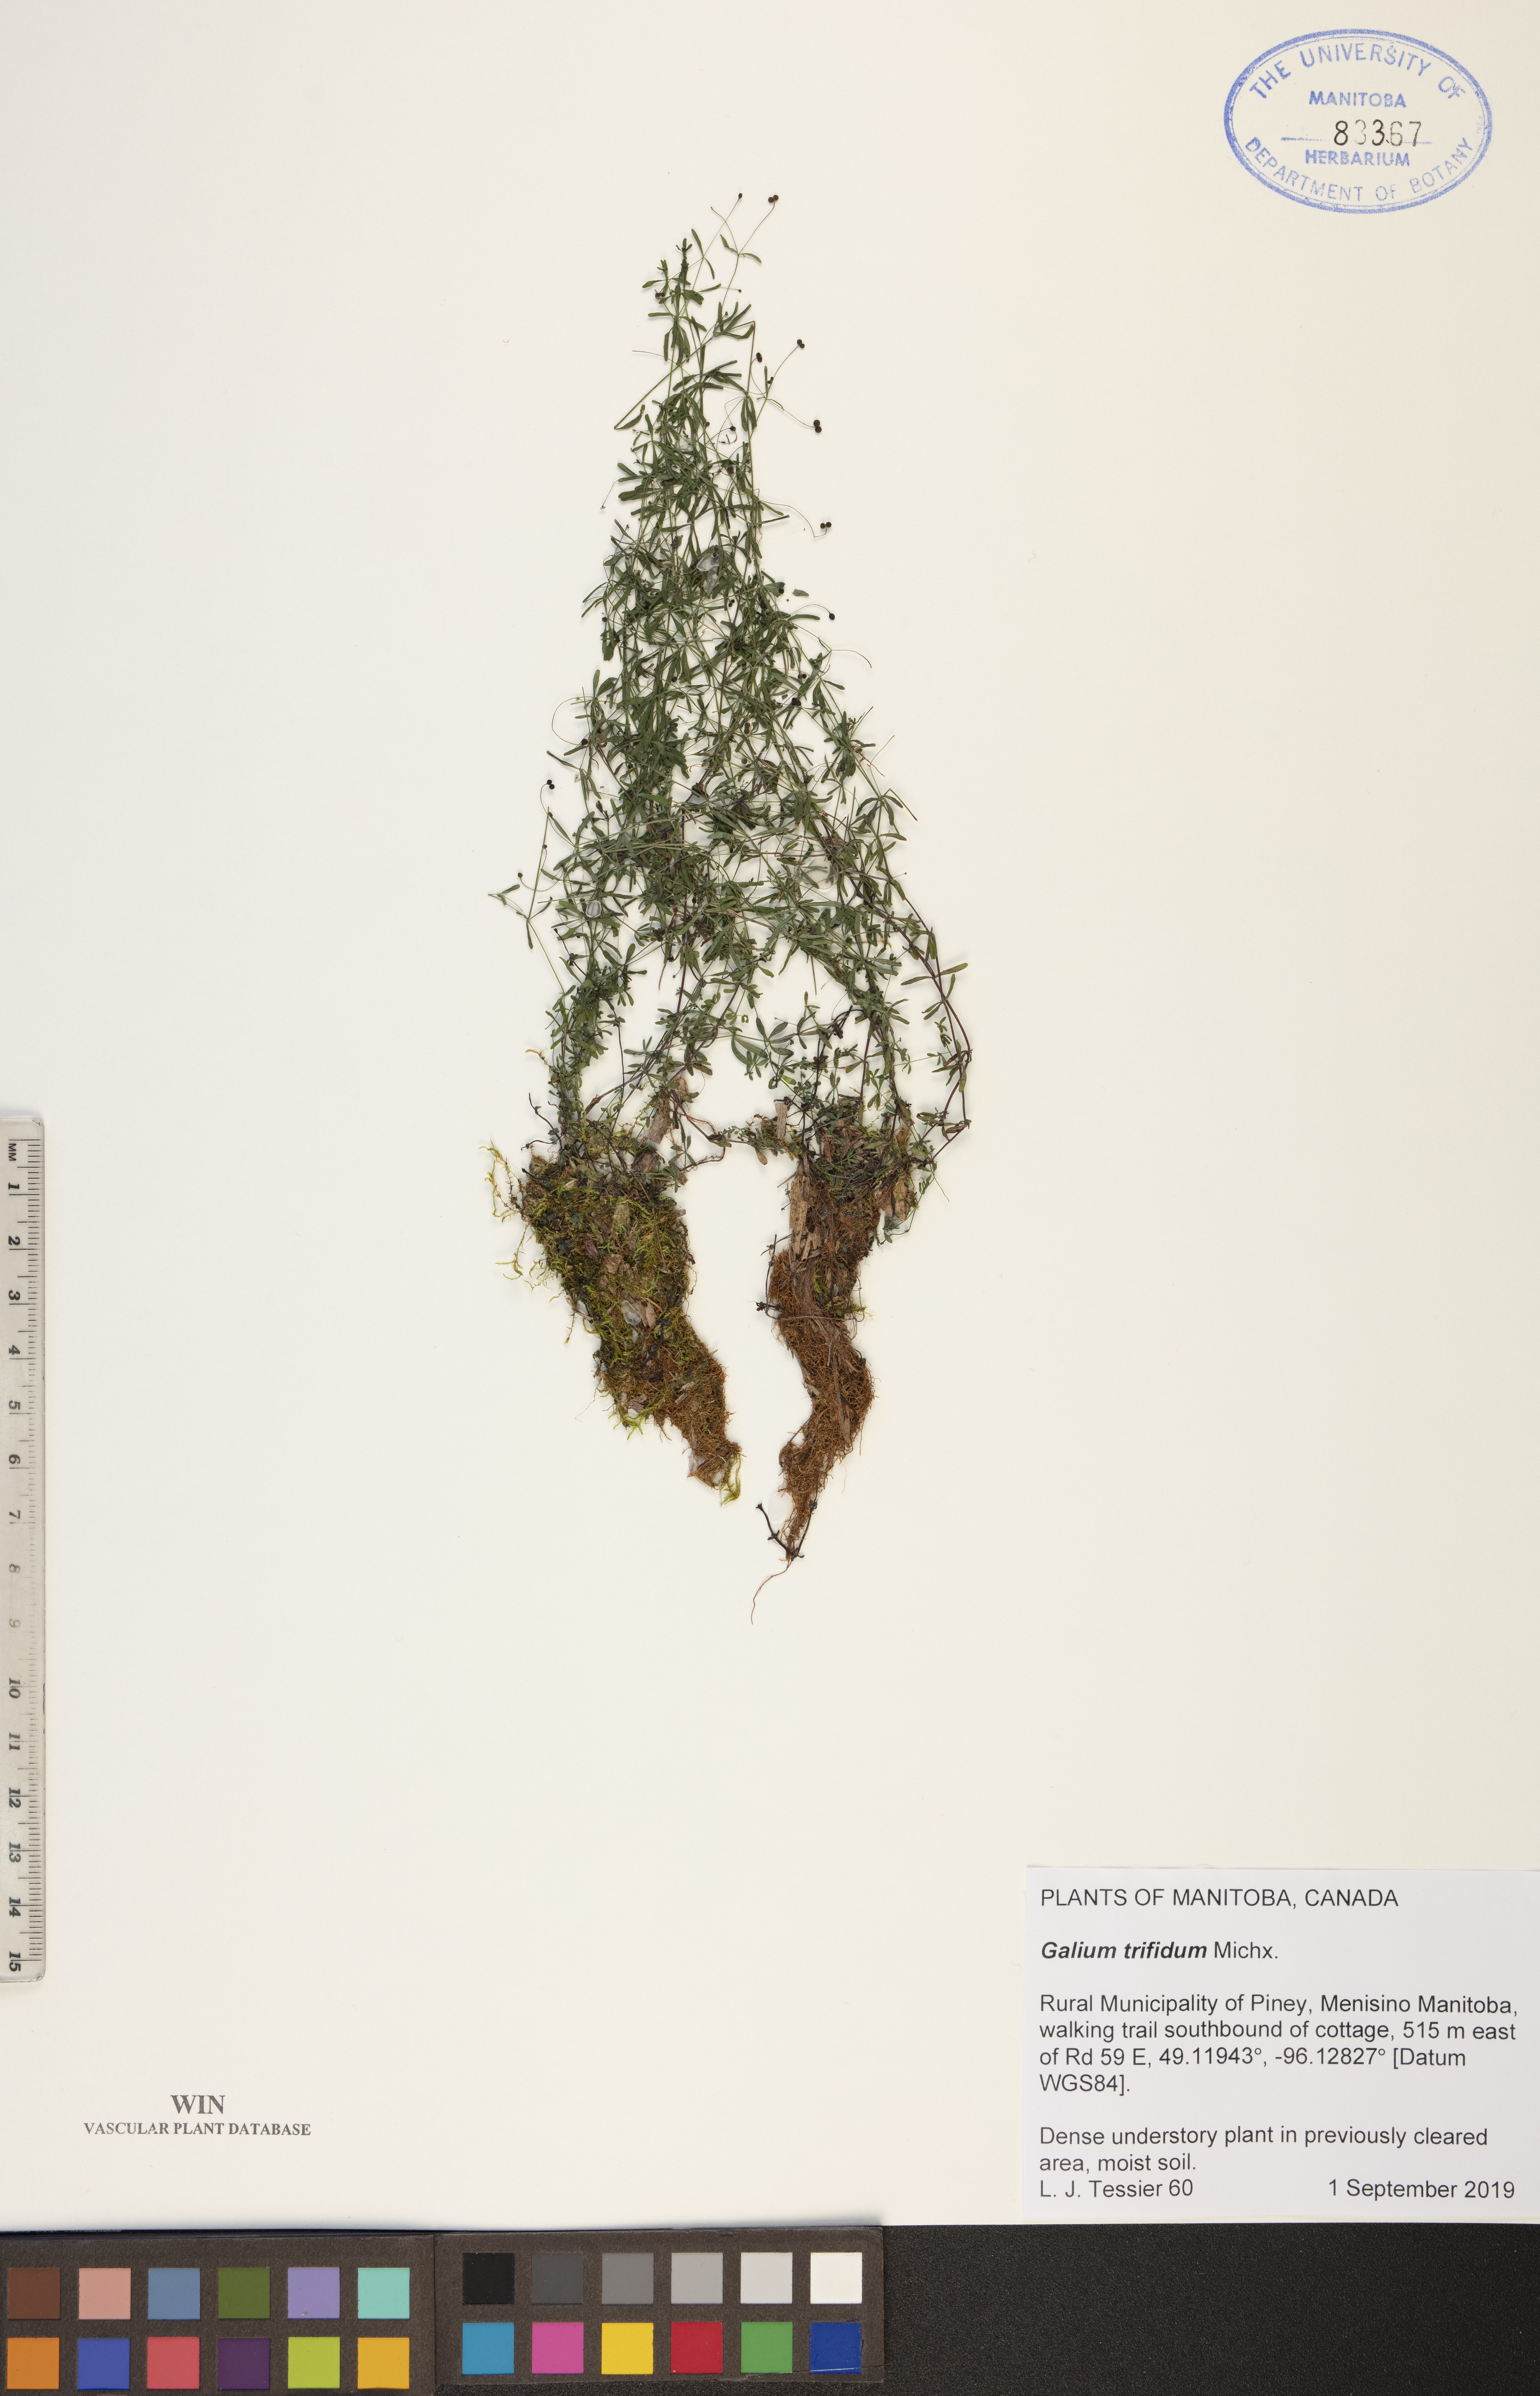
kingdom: Plantae
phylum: Tracheophyta
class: Magnoliopsida
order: Gentianales
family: Rubiaceae
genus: Galium
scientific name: Galium trifidum
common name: Small bedstraw
